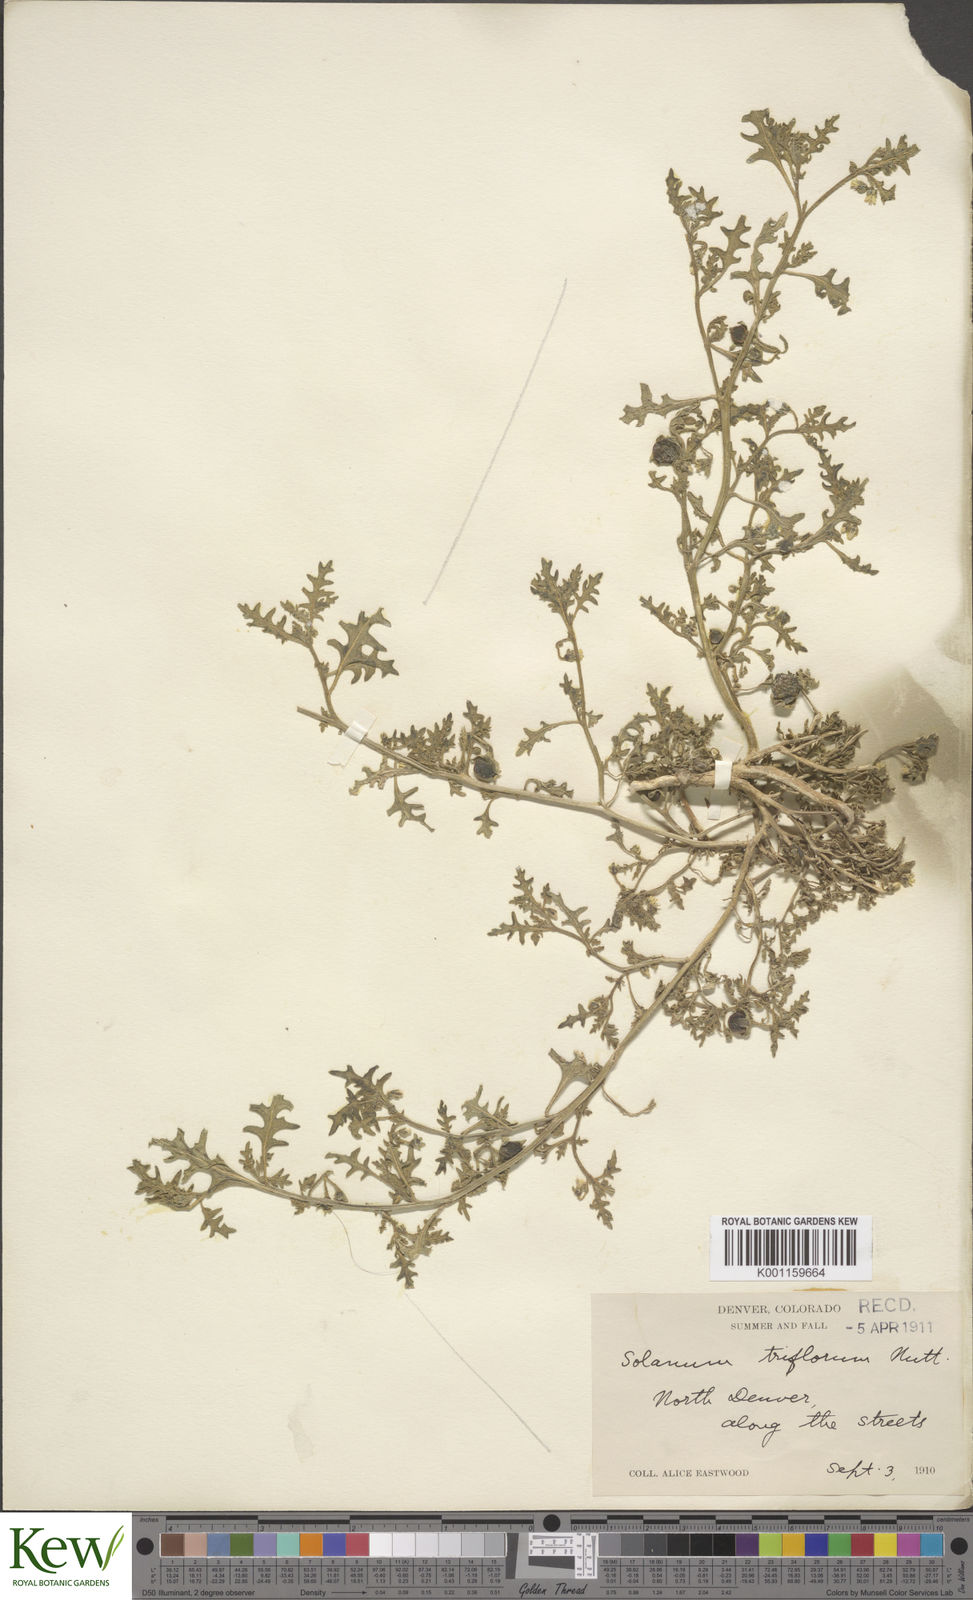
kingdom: Plantae
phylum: Tracheophyta
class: Magnoliopsida
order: Solanales
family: Solanaceae
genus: Solanum
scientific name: Solanum triflorum
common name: Small nightshade
